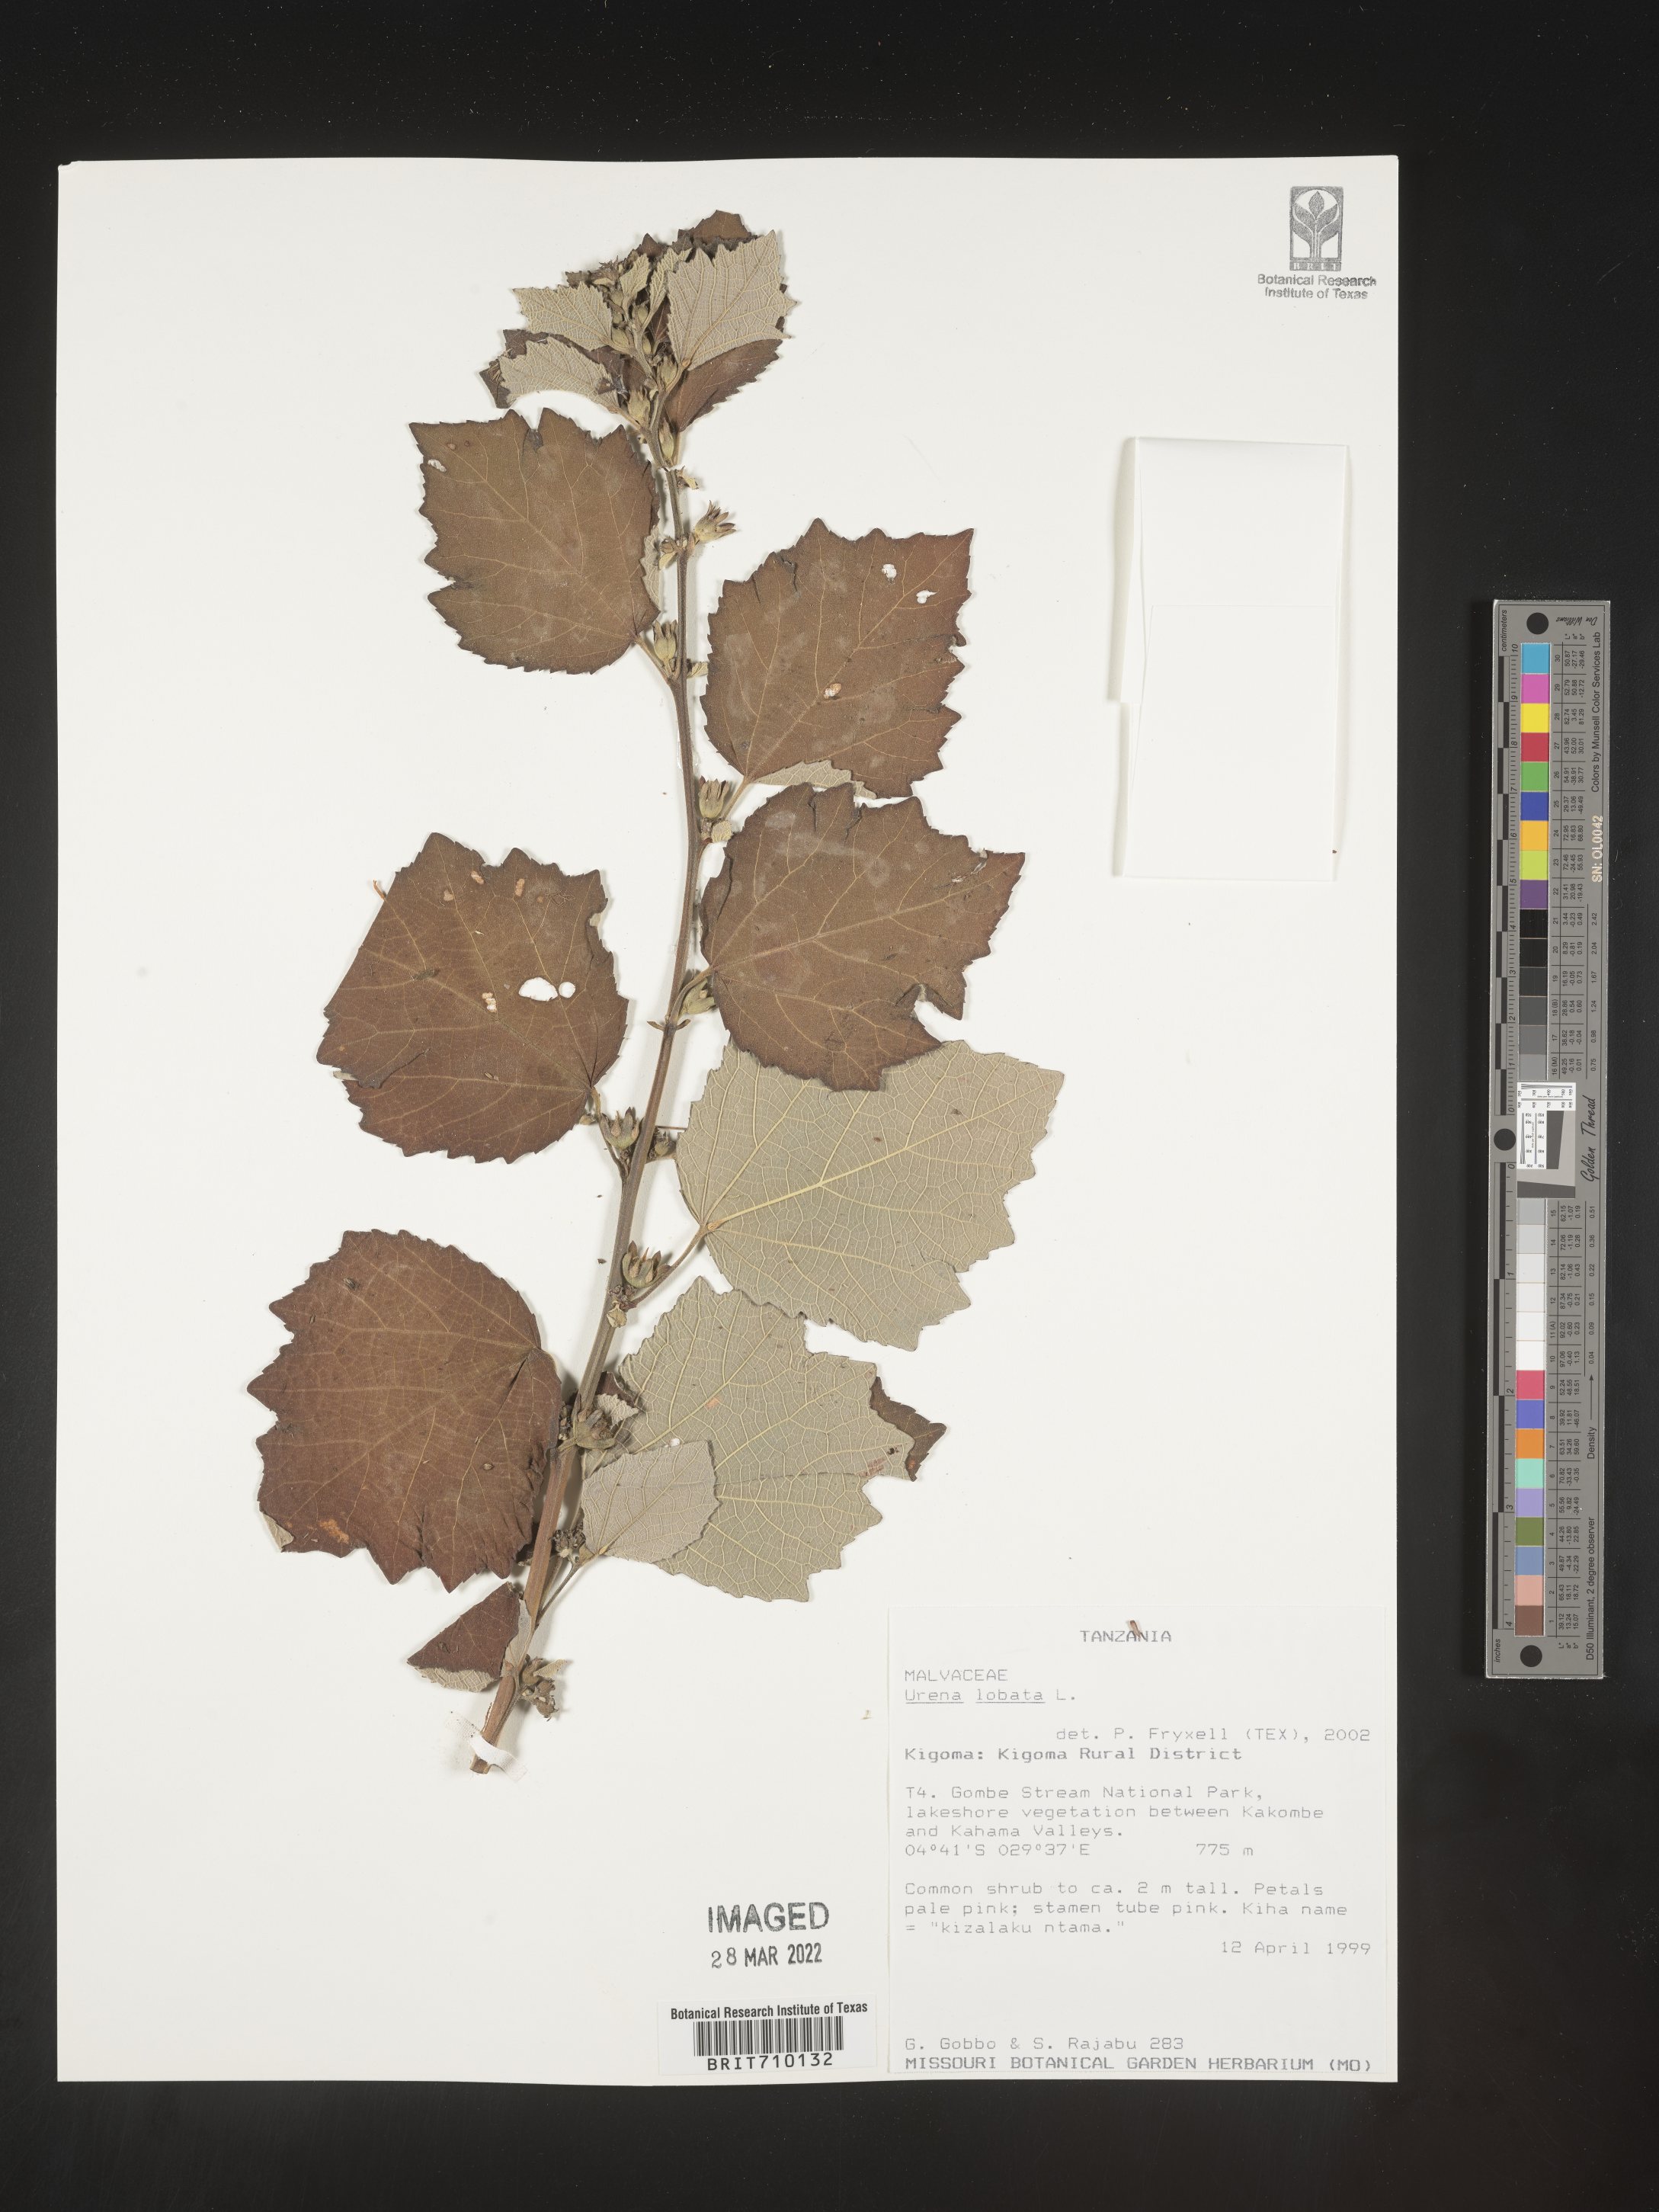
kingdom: Plantae
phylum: Tracheophyta
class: Magnoliopsida
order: Malvales
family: Malvaceae
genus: Urena
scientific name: Urena
